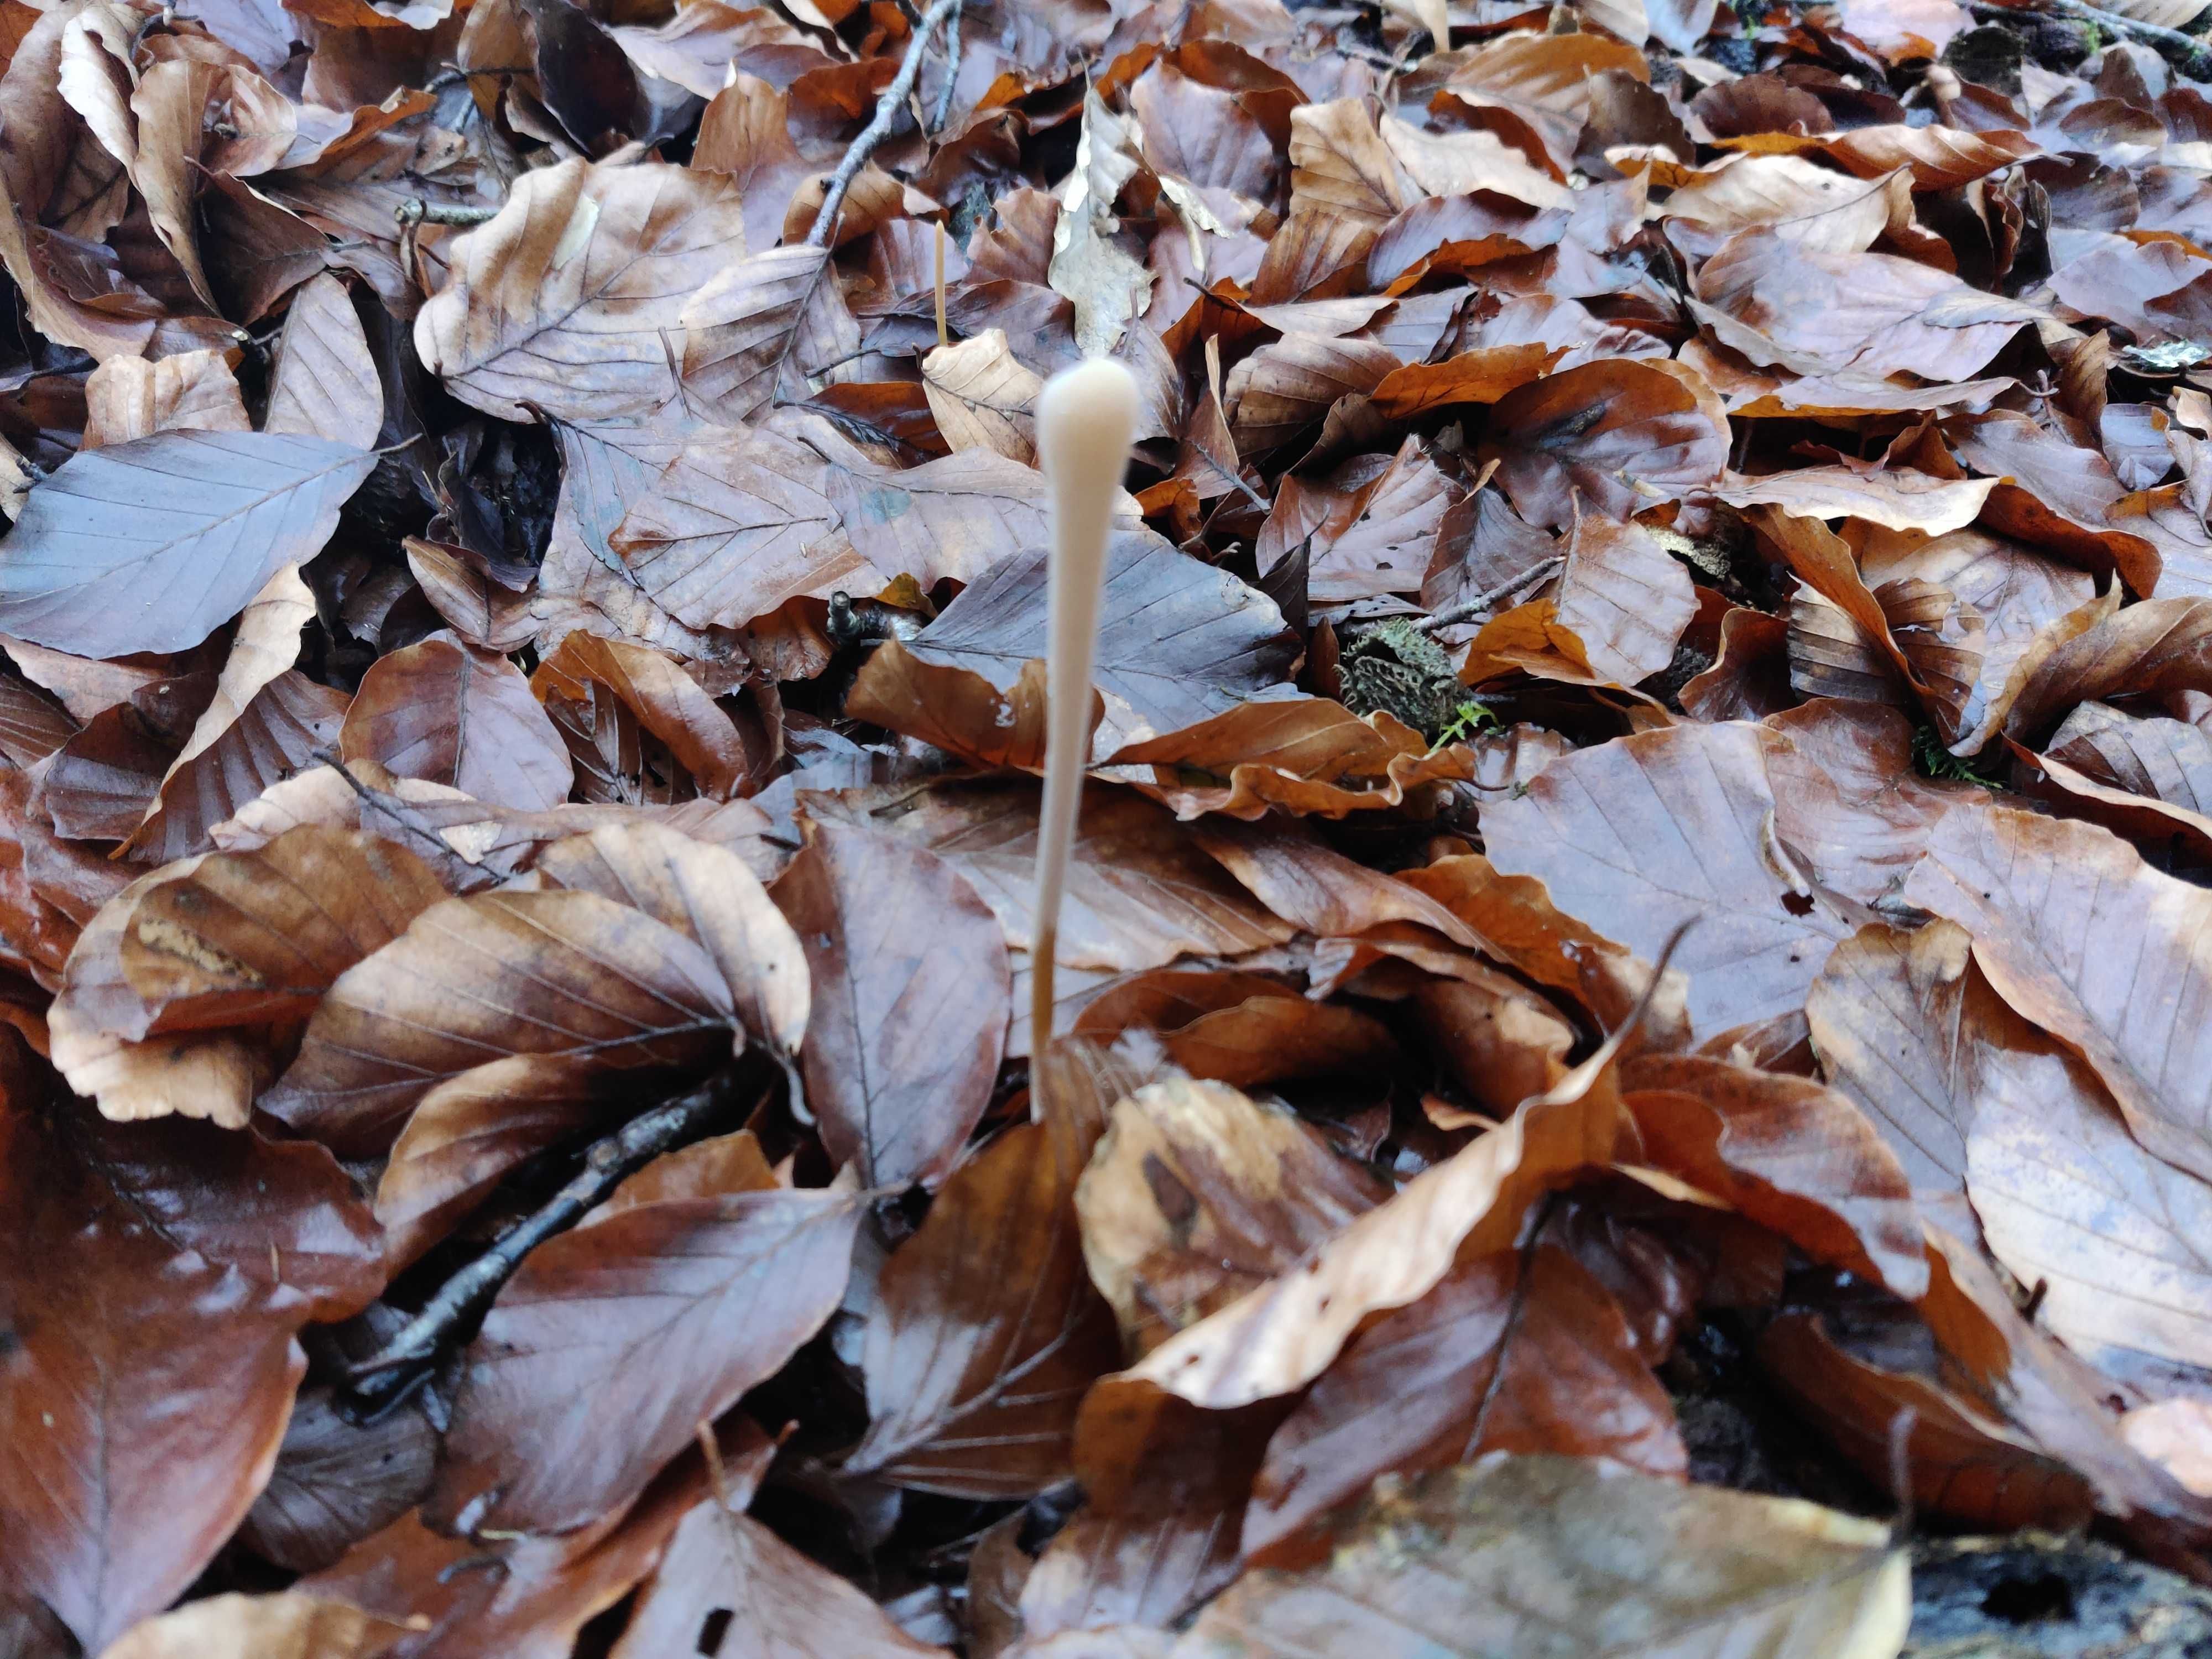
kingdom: Fungi
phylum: Basidiomycota
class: Agaricomycetes
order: Agaricales
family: Typhulaceae
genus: Typhula
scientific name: Typhula fistulosa
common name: pibet rørkølle
